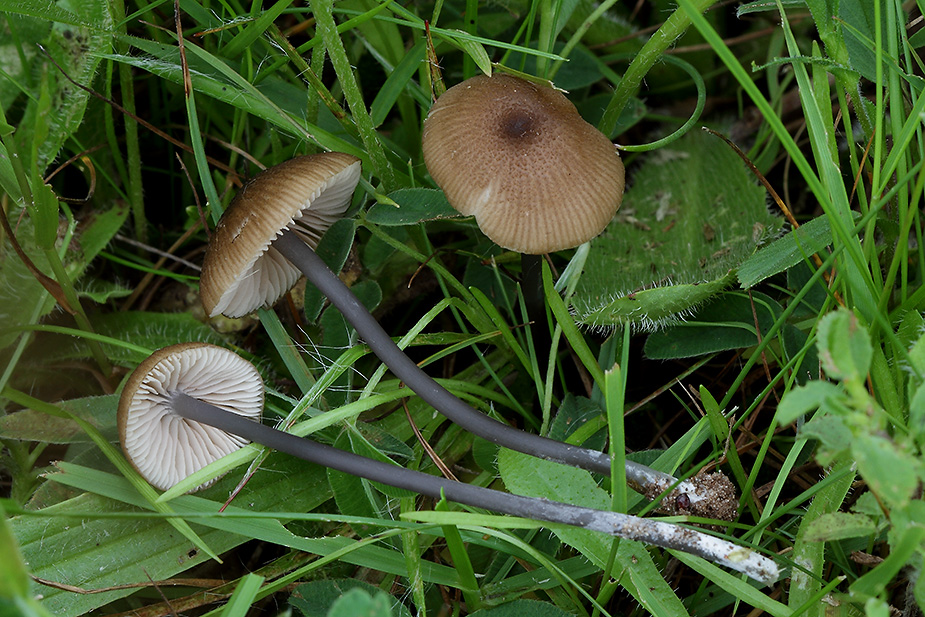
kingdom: Fungi
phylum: Basidiomycota
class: Agaricomycetes
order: Agaricales
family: Entolomataceae
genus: Entoloma
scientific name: Entoloma asprellum
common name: ru rødblad
